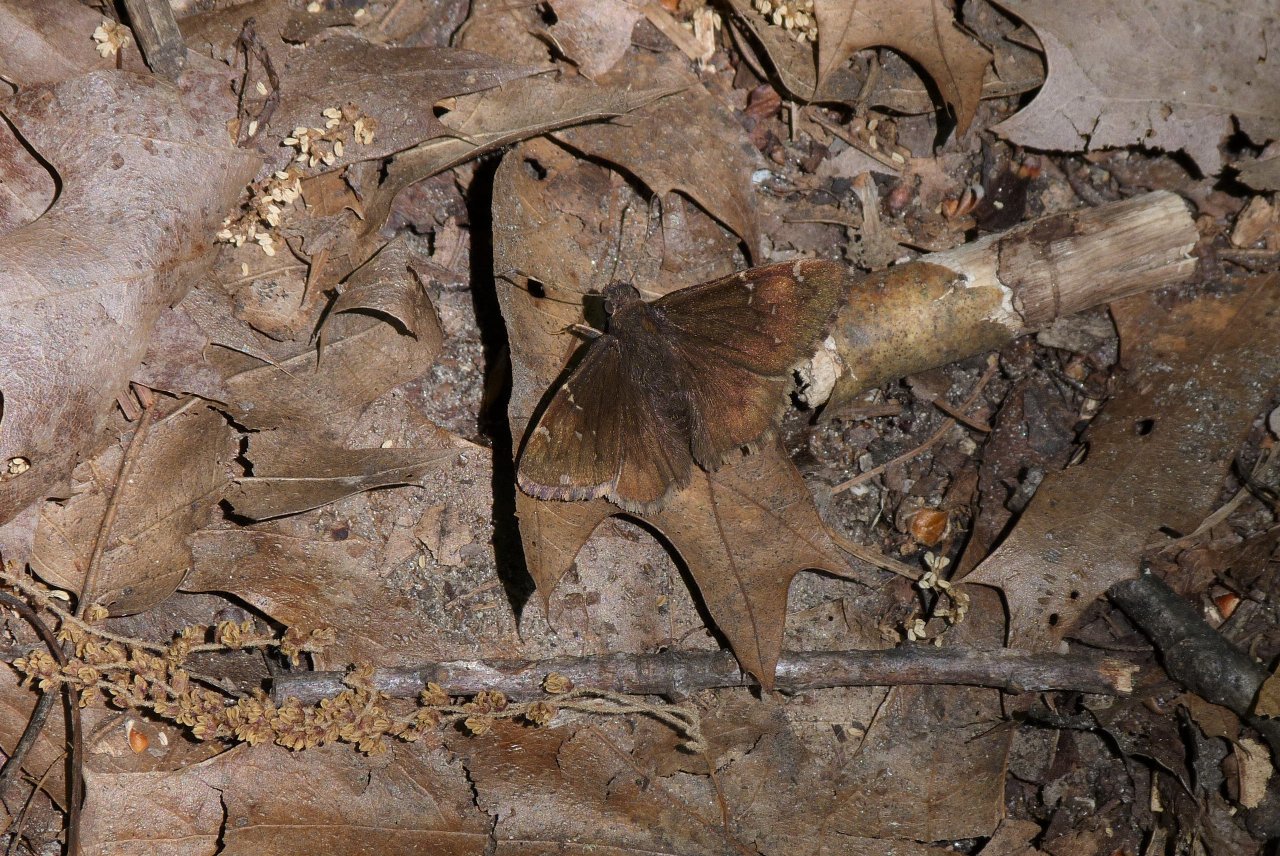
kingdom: Animalia
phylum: Arthropoda
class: Insecta
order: Lepidoptera
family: Hesperiidae
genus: Autochton
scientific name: Autochton
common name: Northern Cloudywing
